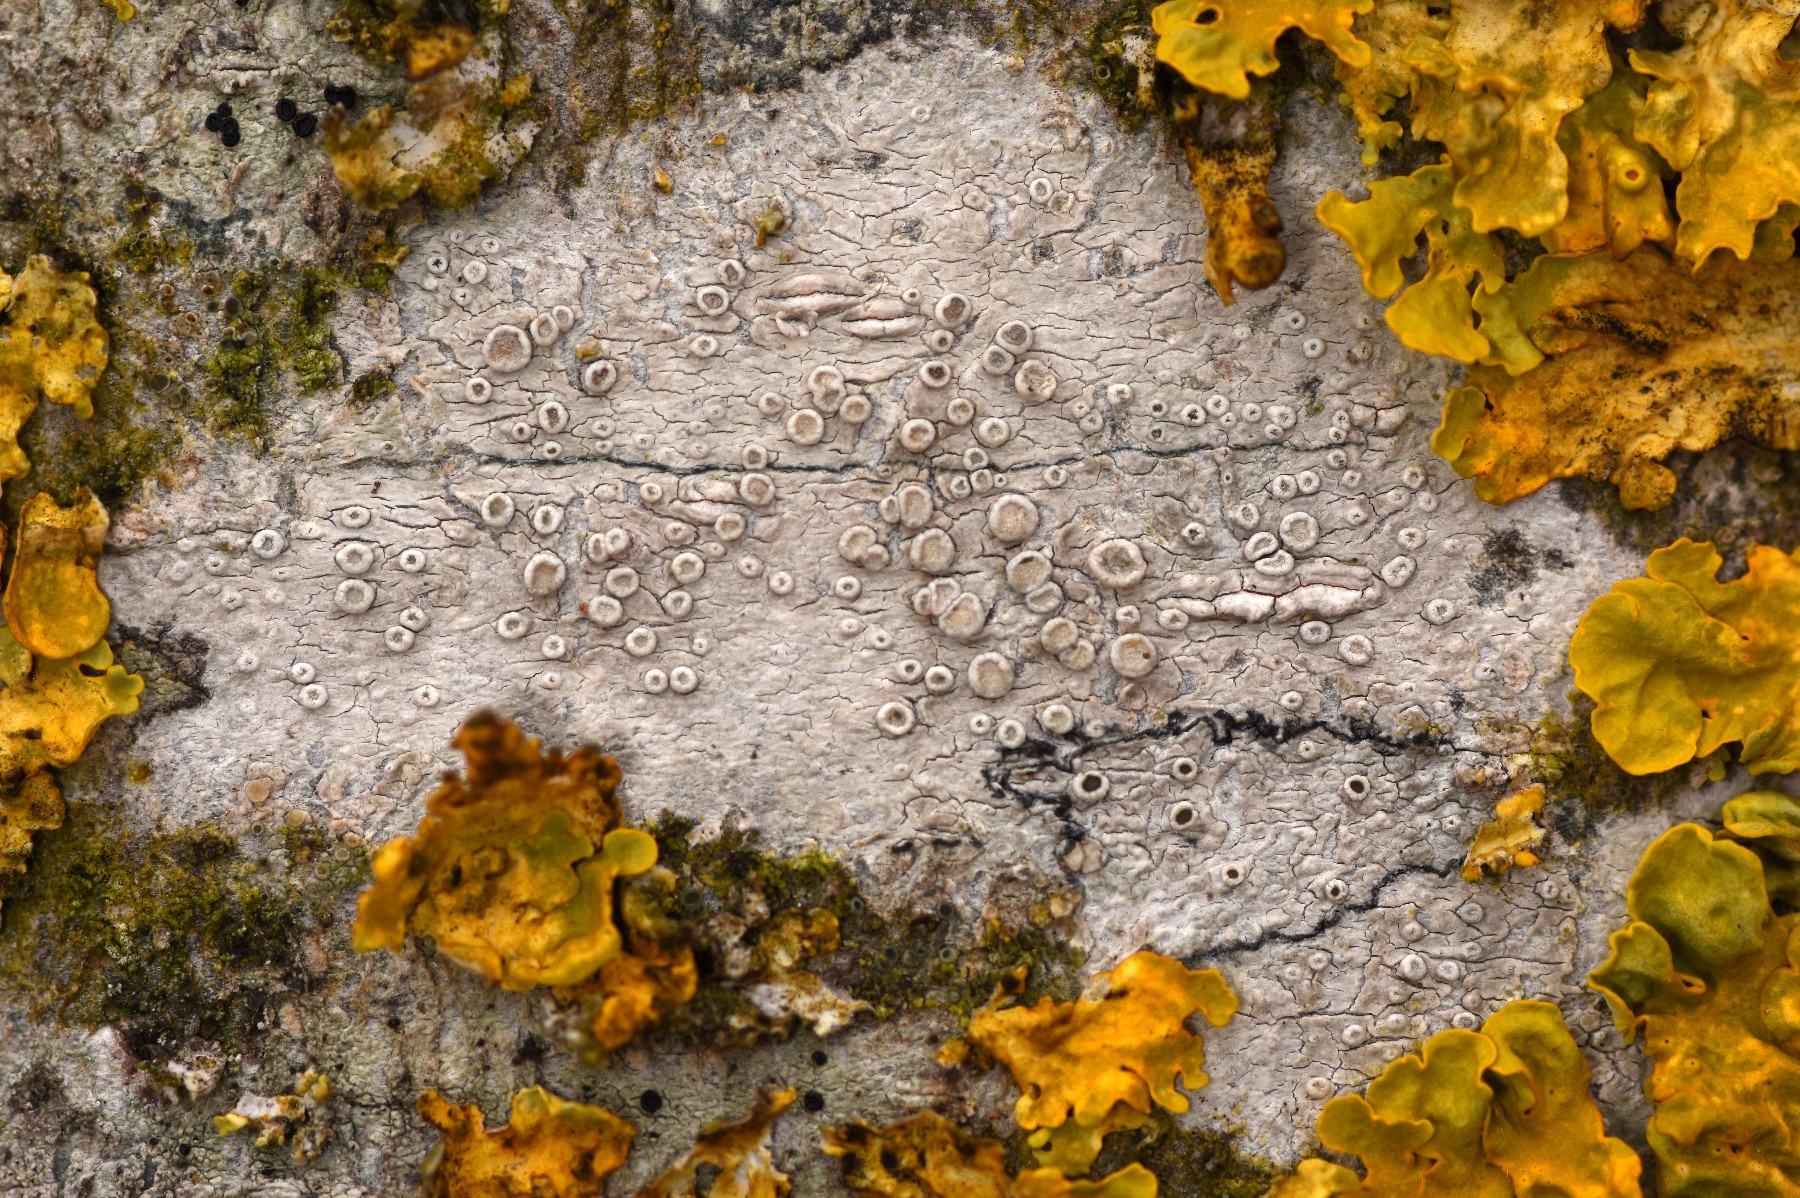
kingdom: Fungi
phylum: Ascomycota
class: Lecanoromycetes
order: Lecanorales
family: Lecanoraceae
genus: Glaucomaria
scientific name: Glaucomaria carpinea
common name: hviddugget kantskivelav
